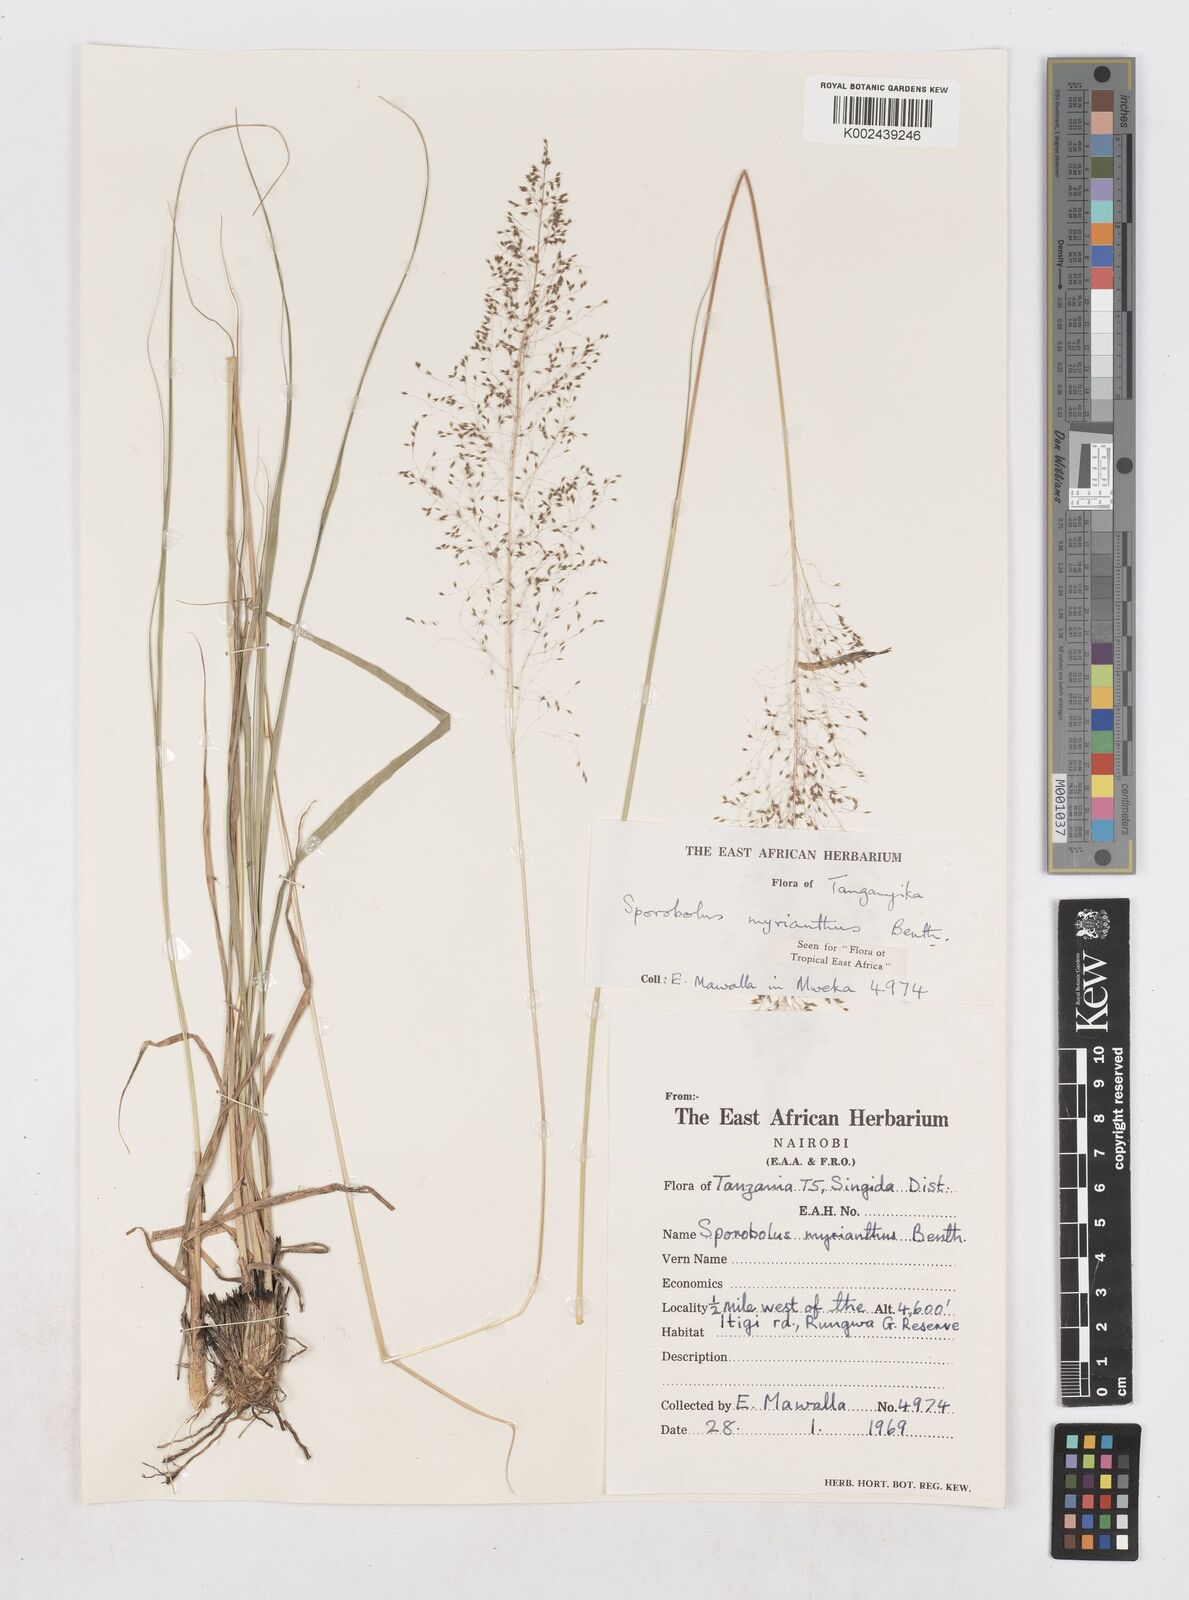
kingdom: Plantae
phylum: Tracheophyta
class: Liliopsida
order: Poales
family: Poaceae
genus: Sporobolus
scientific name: Sporobolus myrianthus
